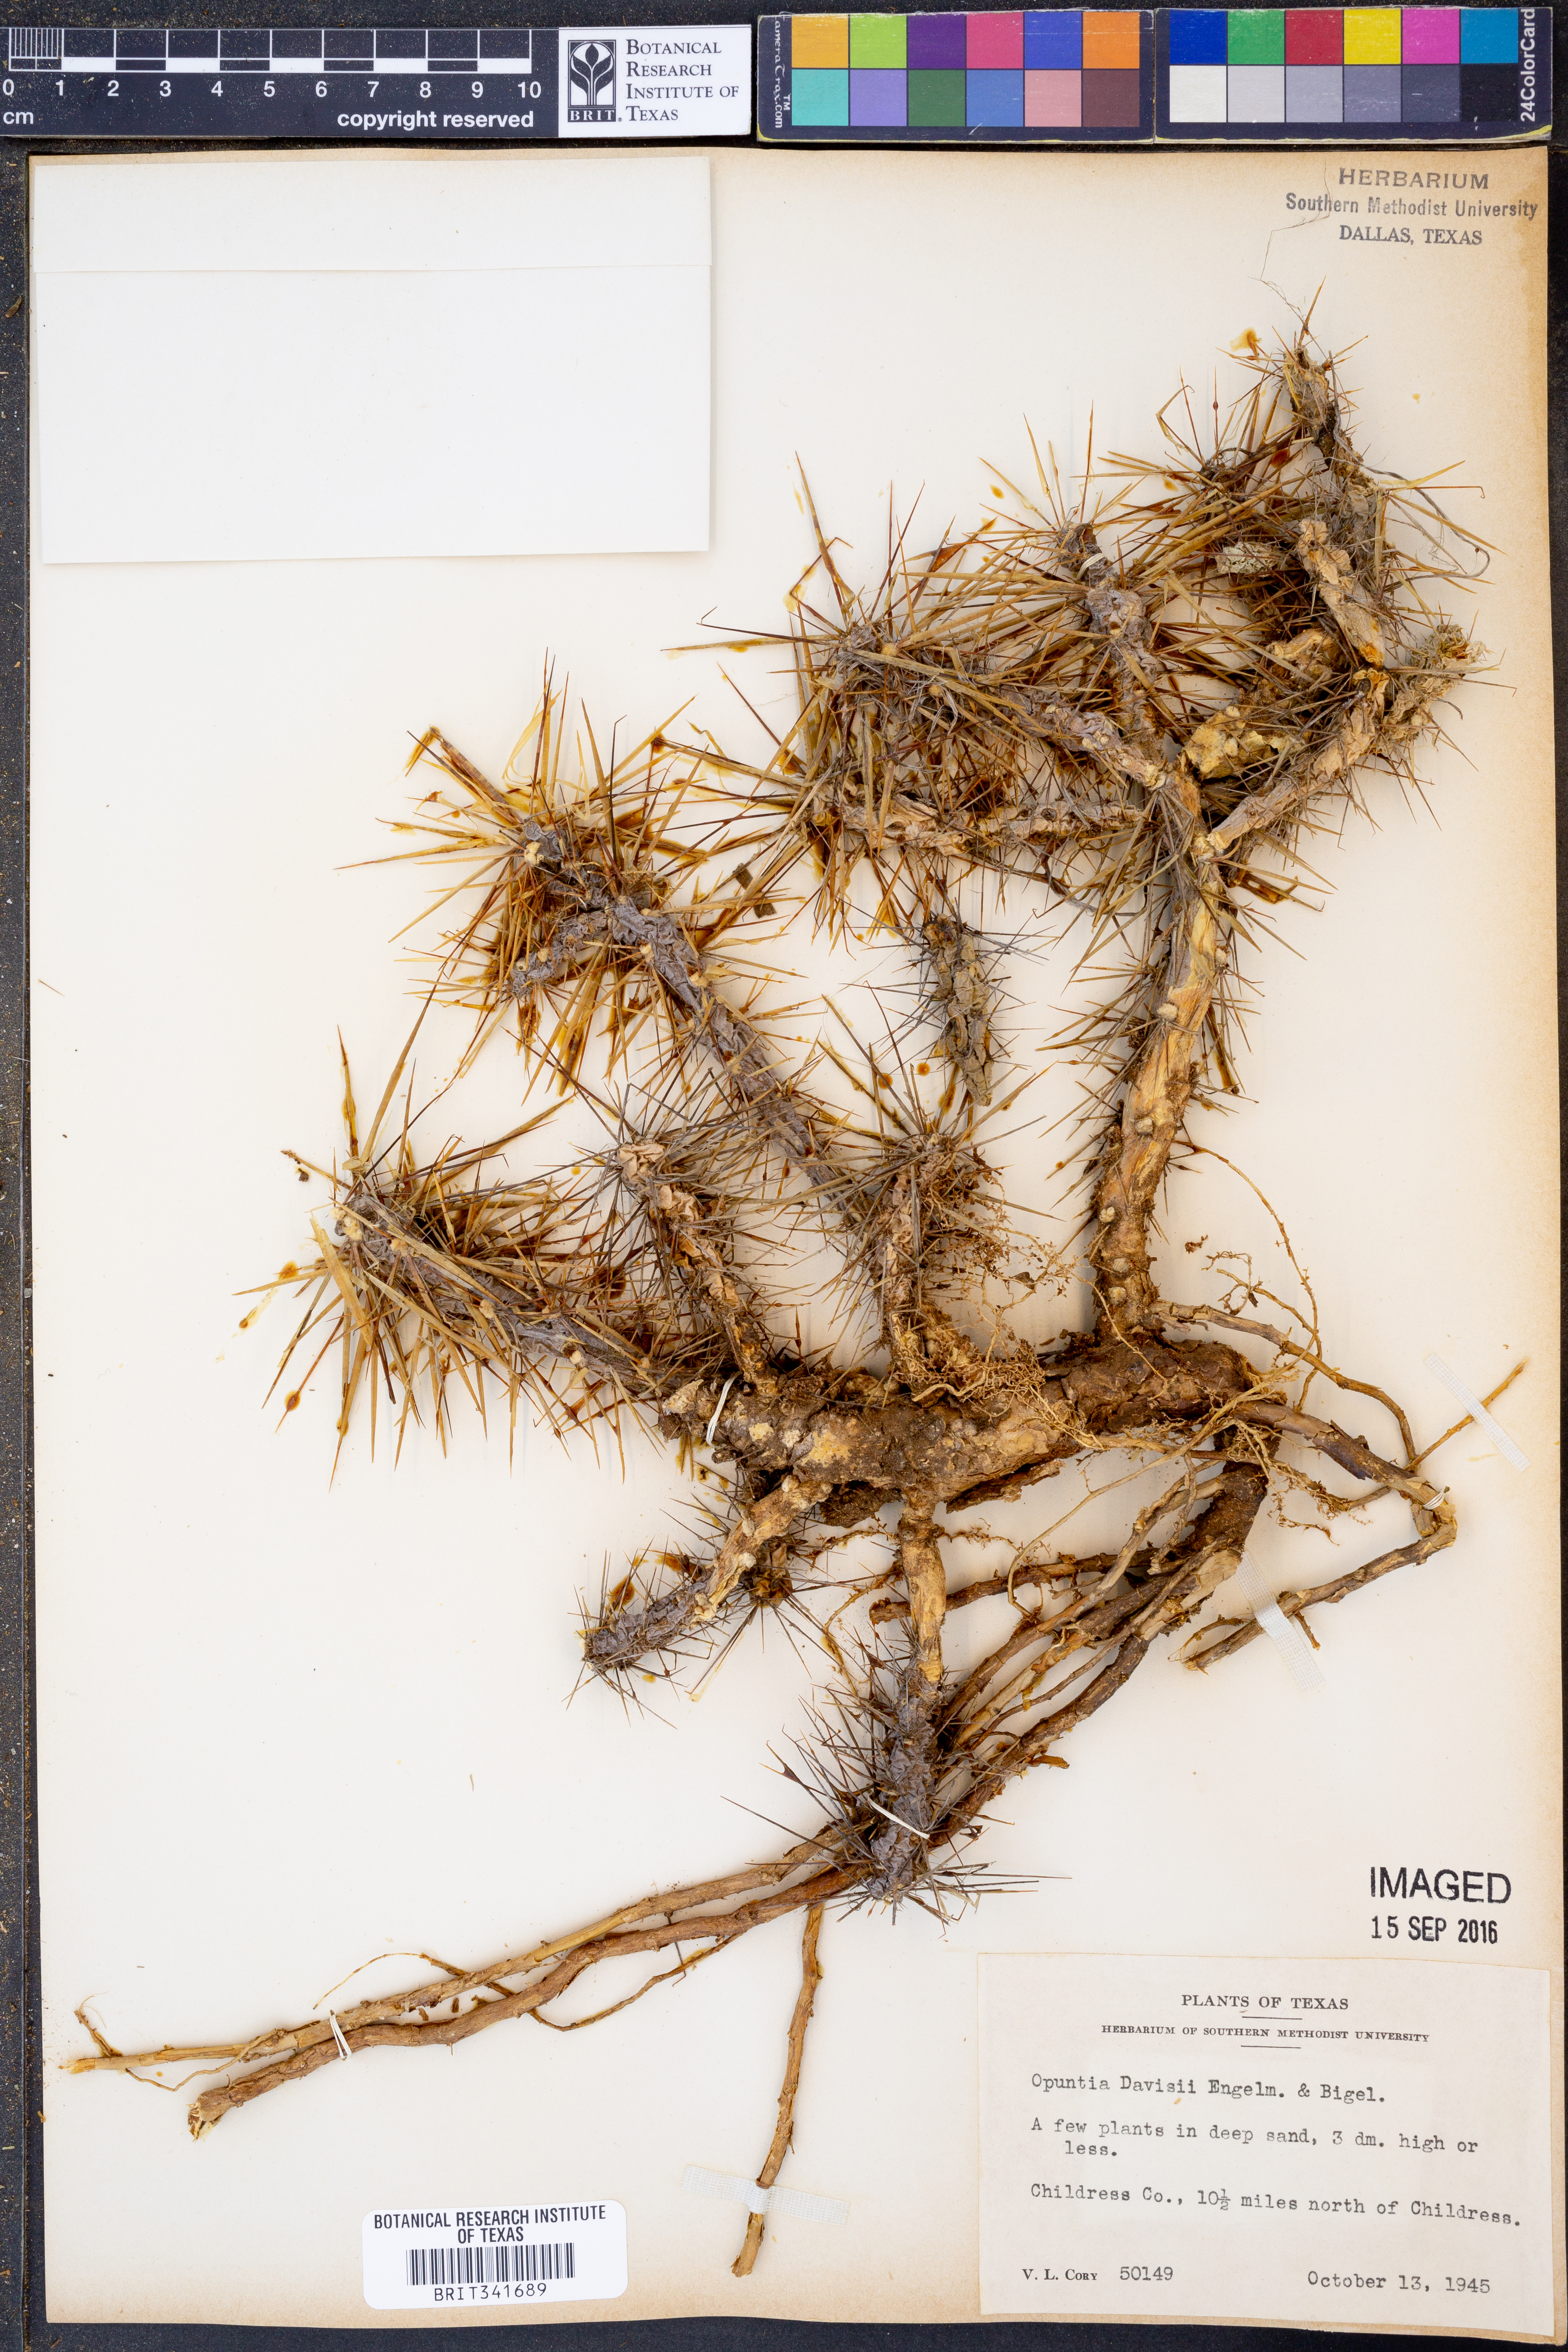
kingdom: Plantae
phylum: Tracheophyta
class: Magnoliopsida
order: Caryophyllales
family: Cactaceae
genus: Cylindropuntia
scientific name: Cylindropuntia davisii
